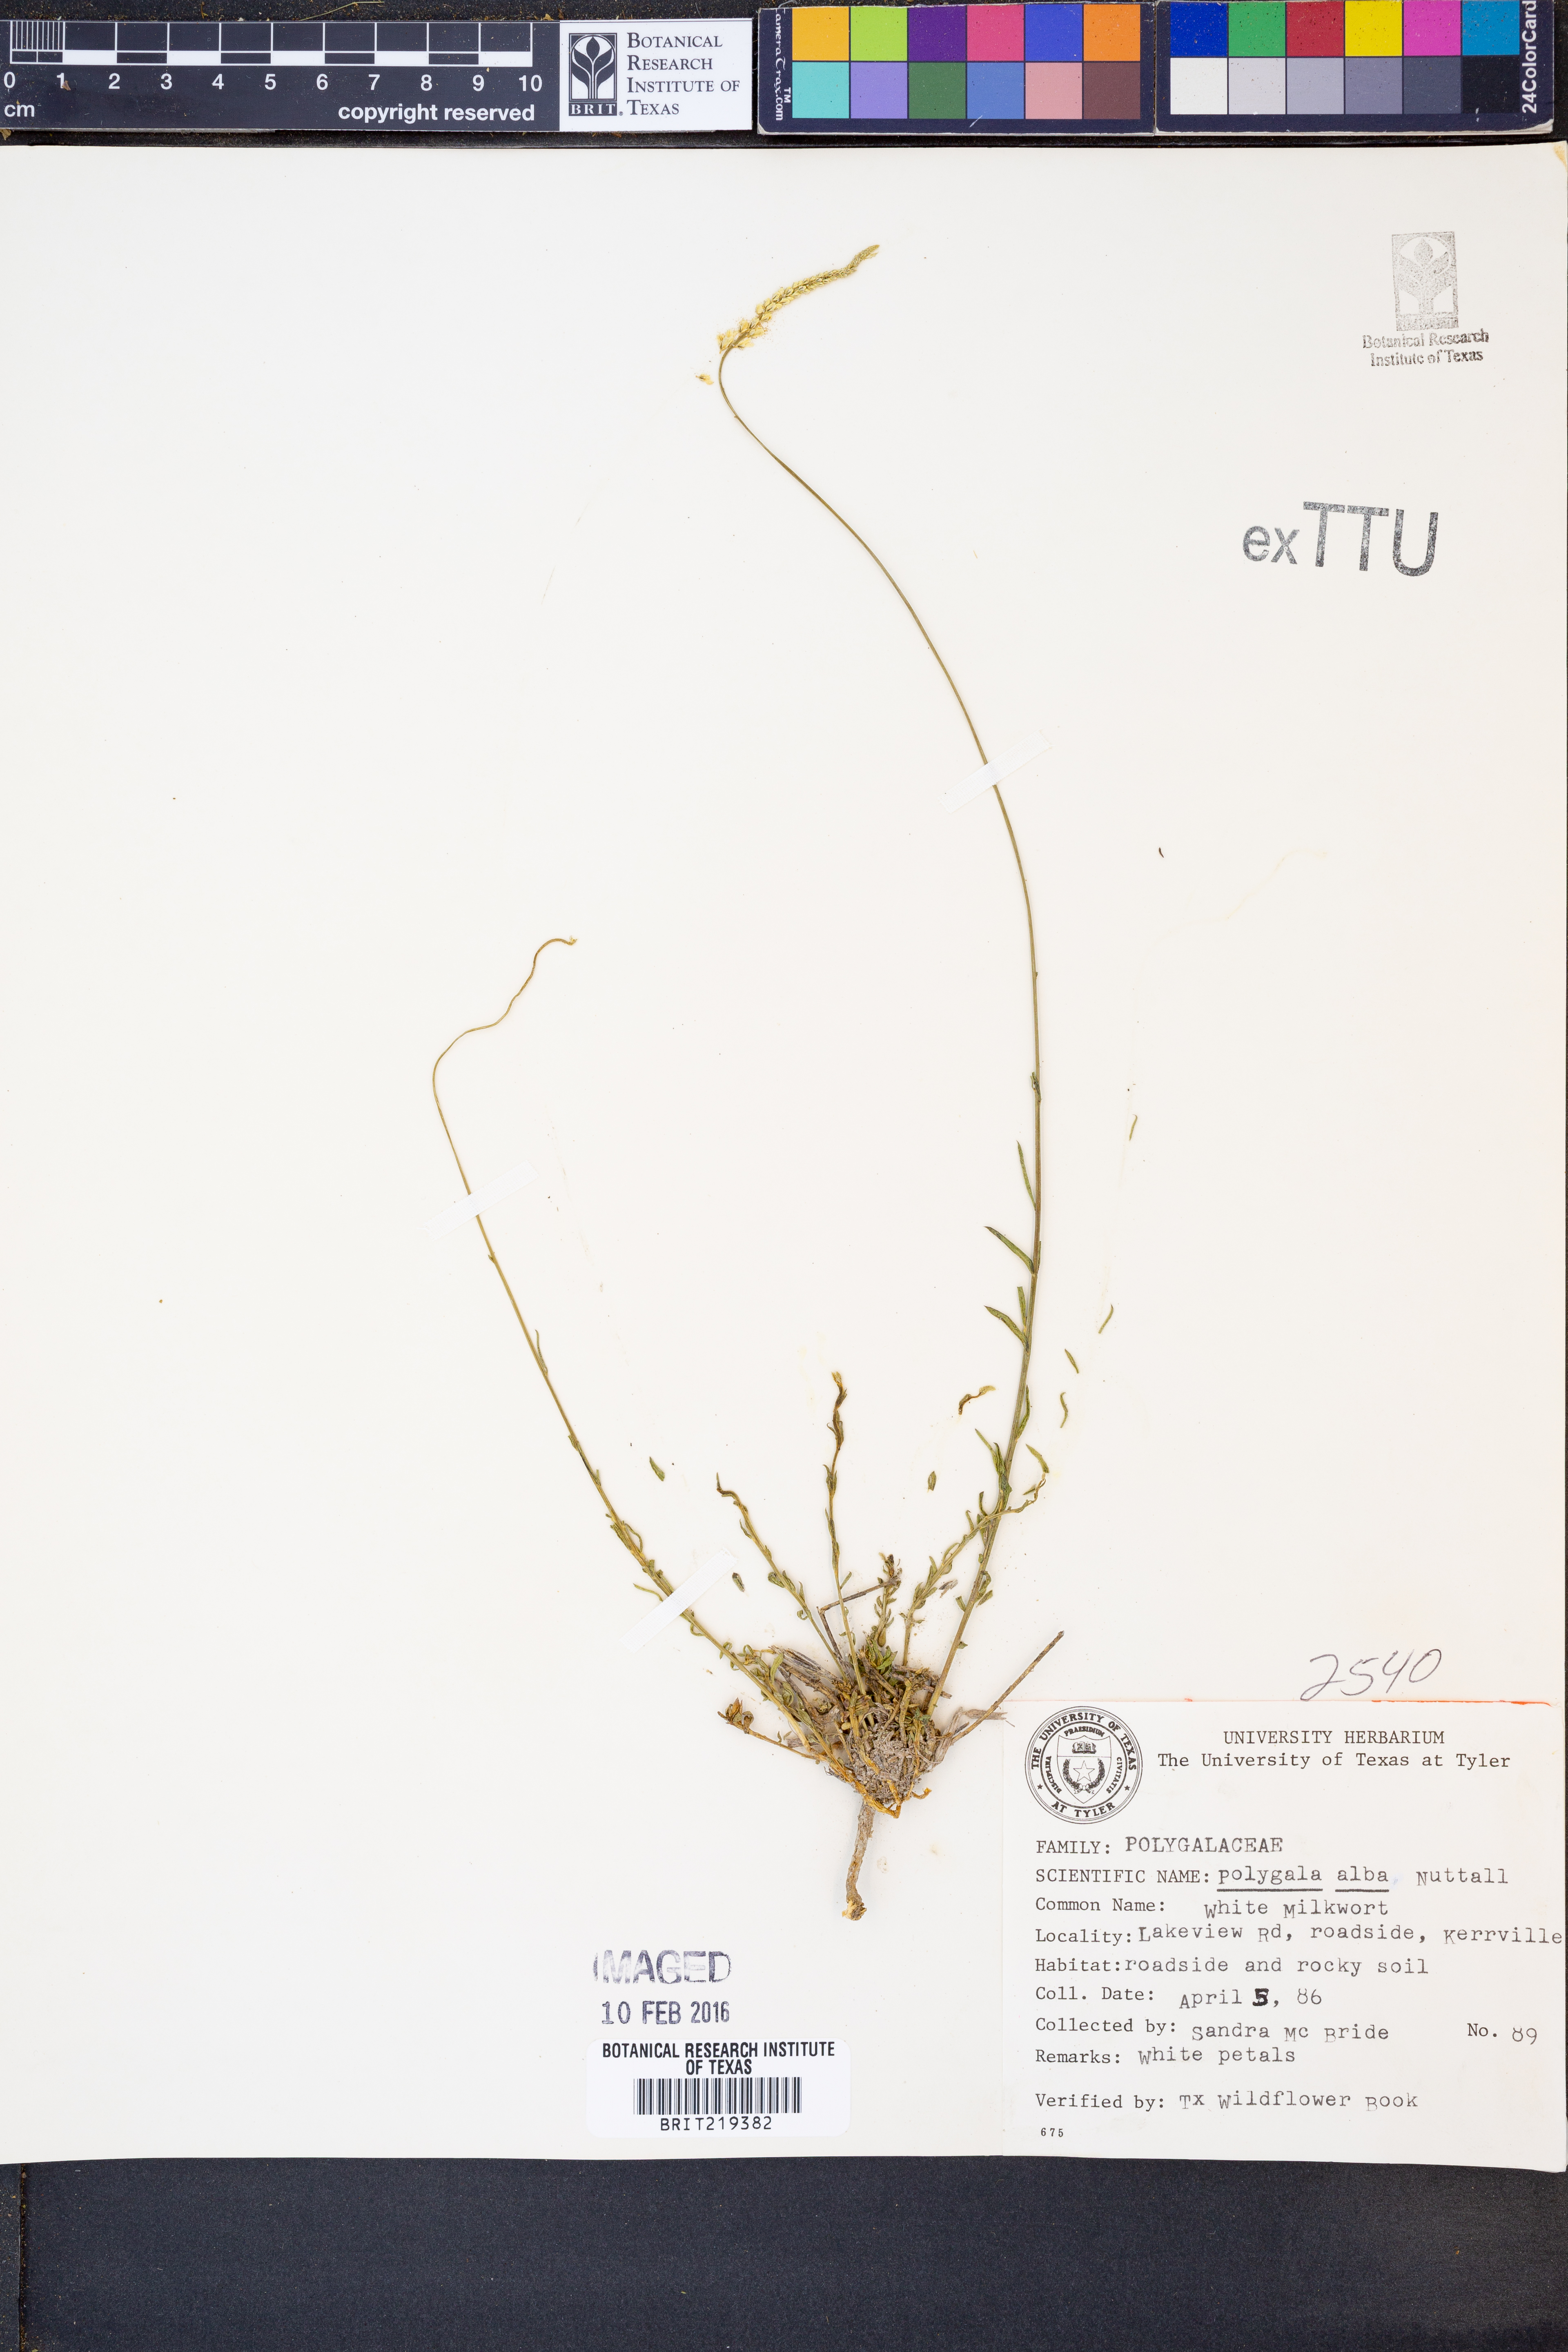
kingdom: Plantae
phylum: Tracheophyta
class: Magnoliopsida
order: Fabales
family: Polygalaceae
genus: Polygala
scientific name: Polygala alba
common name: White milkwort
